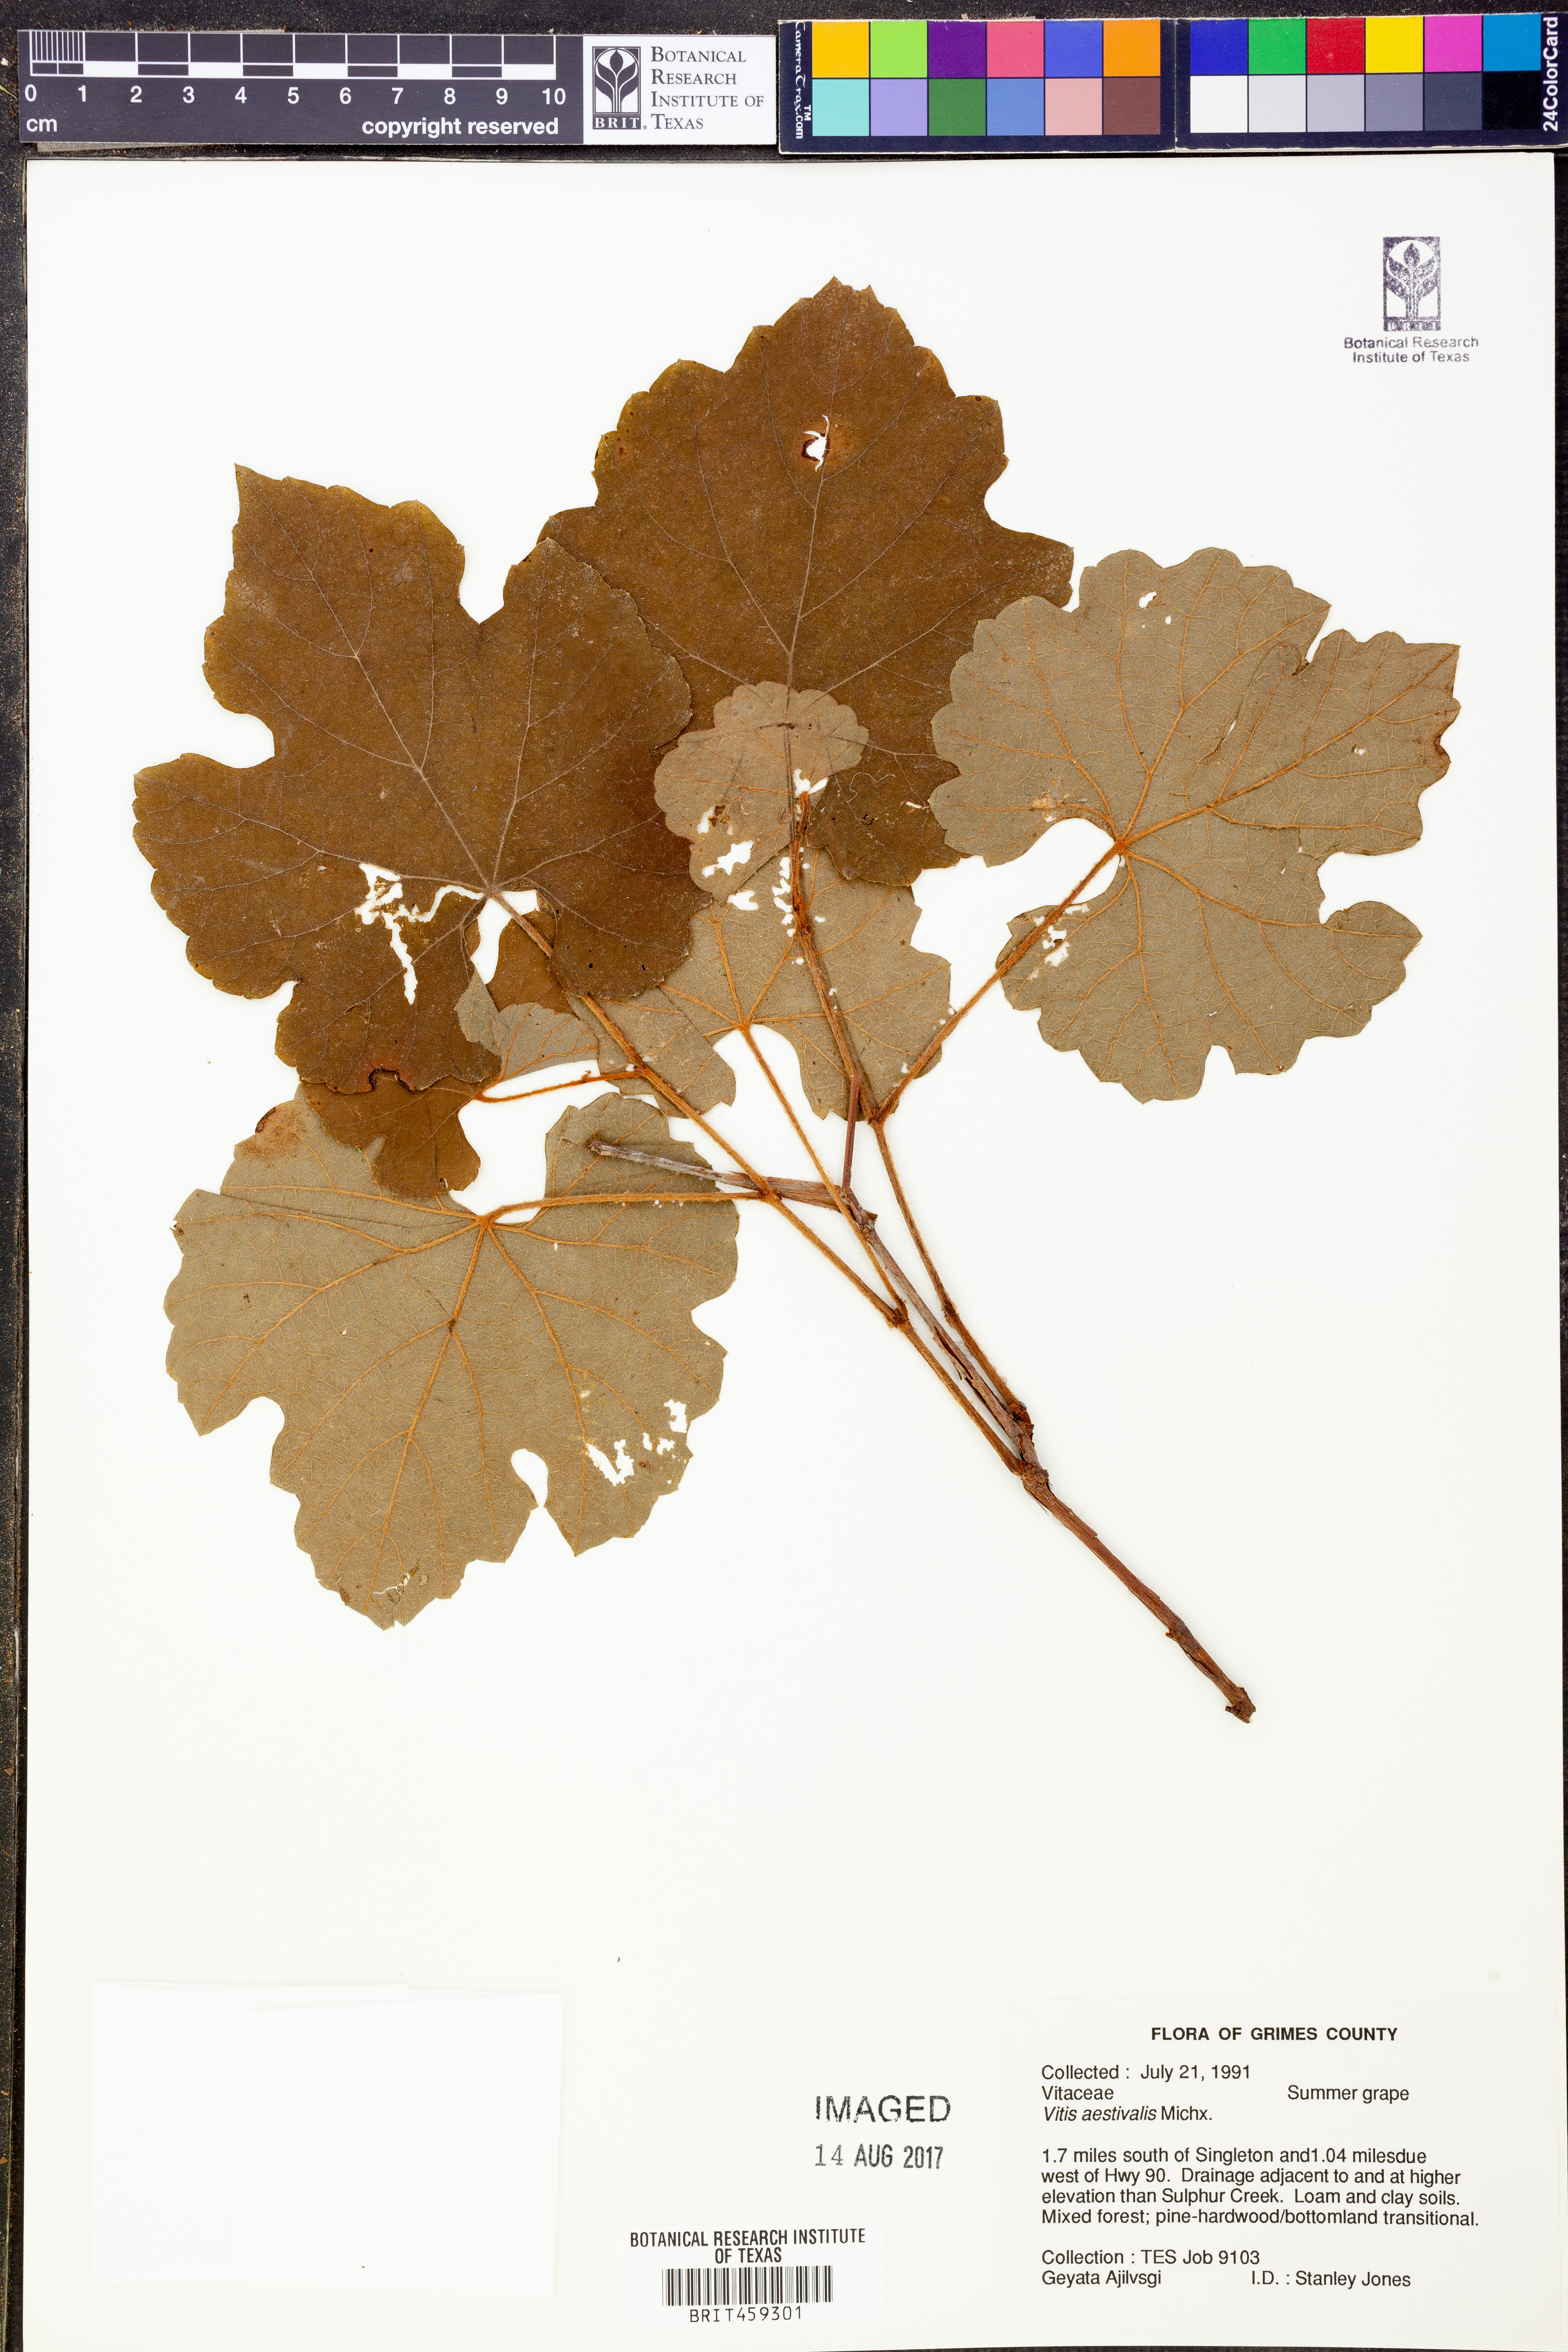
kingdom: Plantae
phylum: Tracheophyta
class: Magnoliopsida
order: Vitales
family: Vitaceae
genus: Vitis
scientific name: Vitis aestivalis
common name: Pigeon grape
